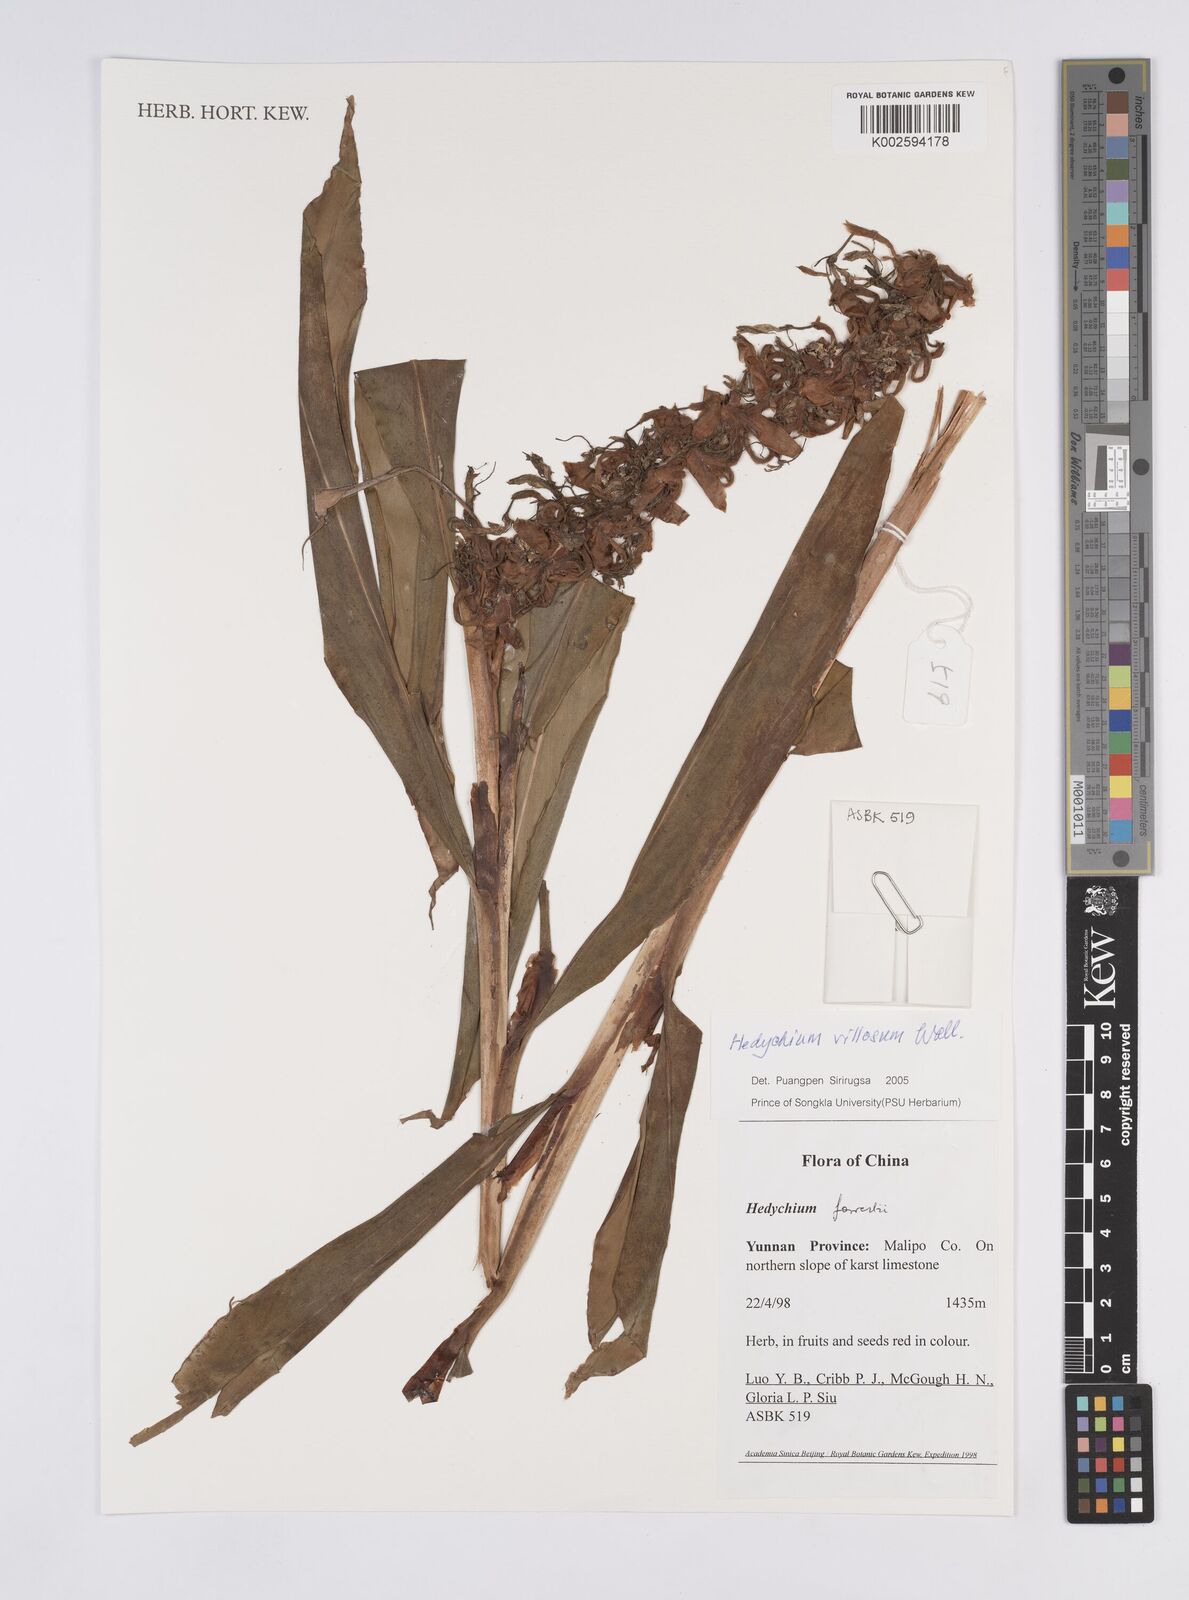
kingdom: Plantae
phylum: Tracheophyta
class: Liliopsida
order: Zingiberales
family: Zingiberaceae
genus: Hedychium
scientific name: Hedychium villosum
